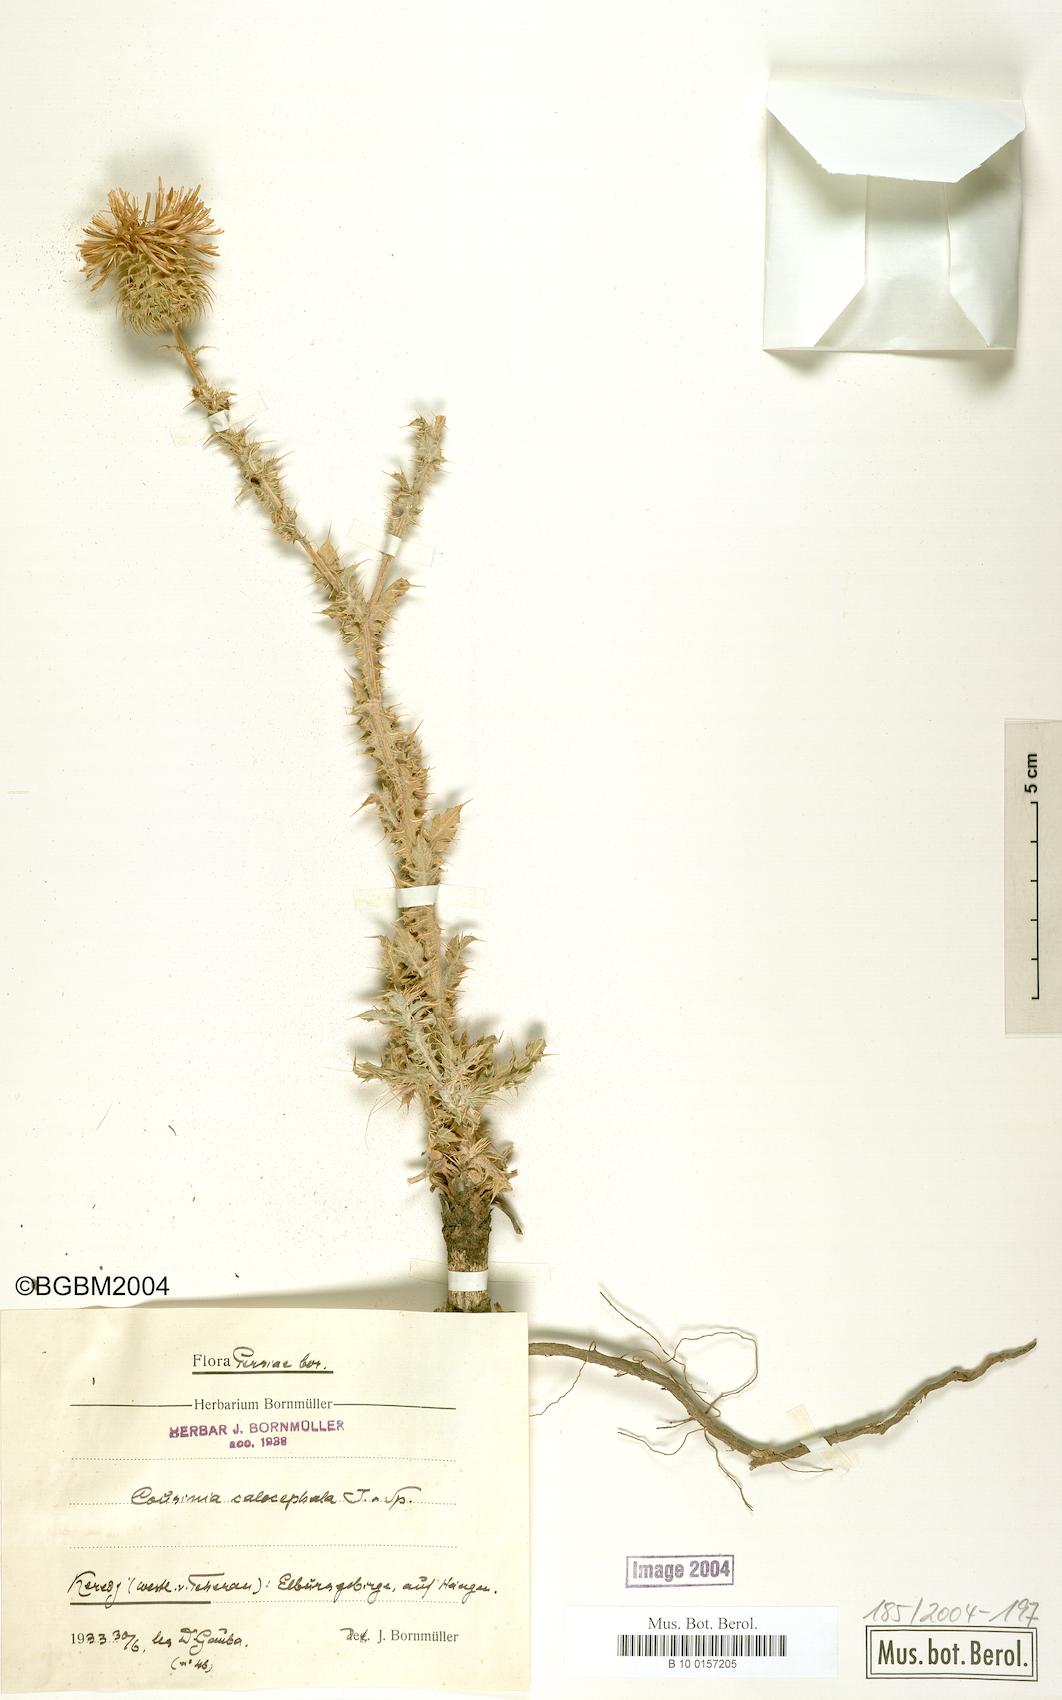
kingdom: Plantae
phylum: Tracheophyta
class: Magnoliopsida
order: Asterales
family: Asteraceae
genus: Cousinia
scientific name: Cousinia calocephala
